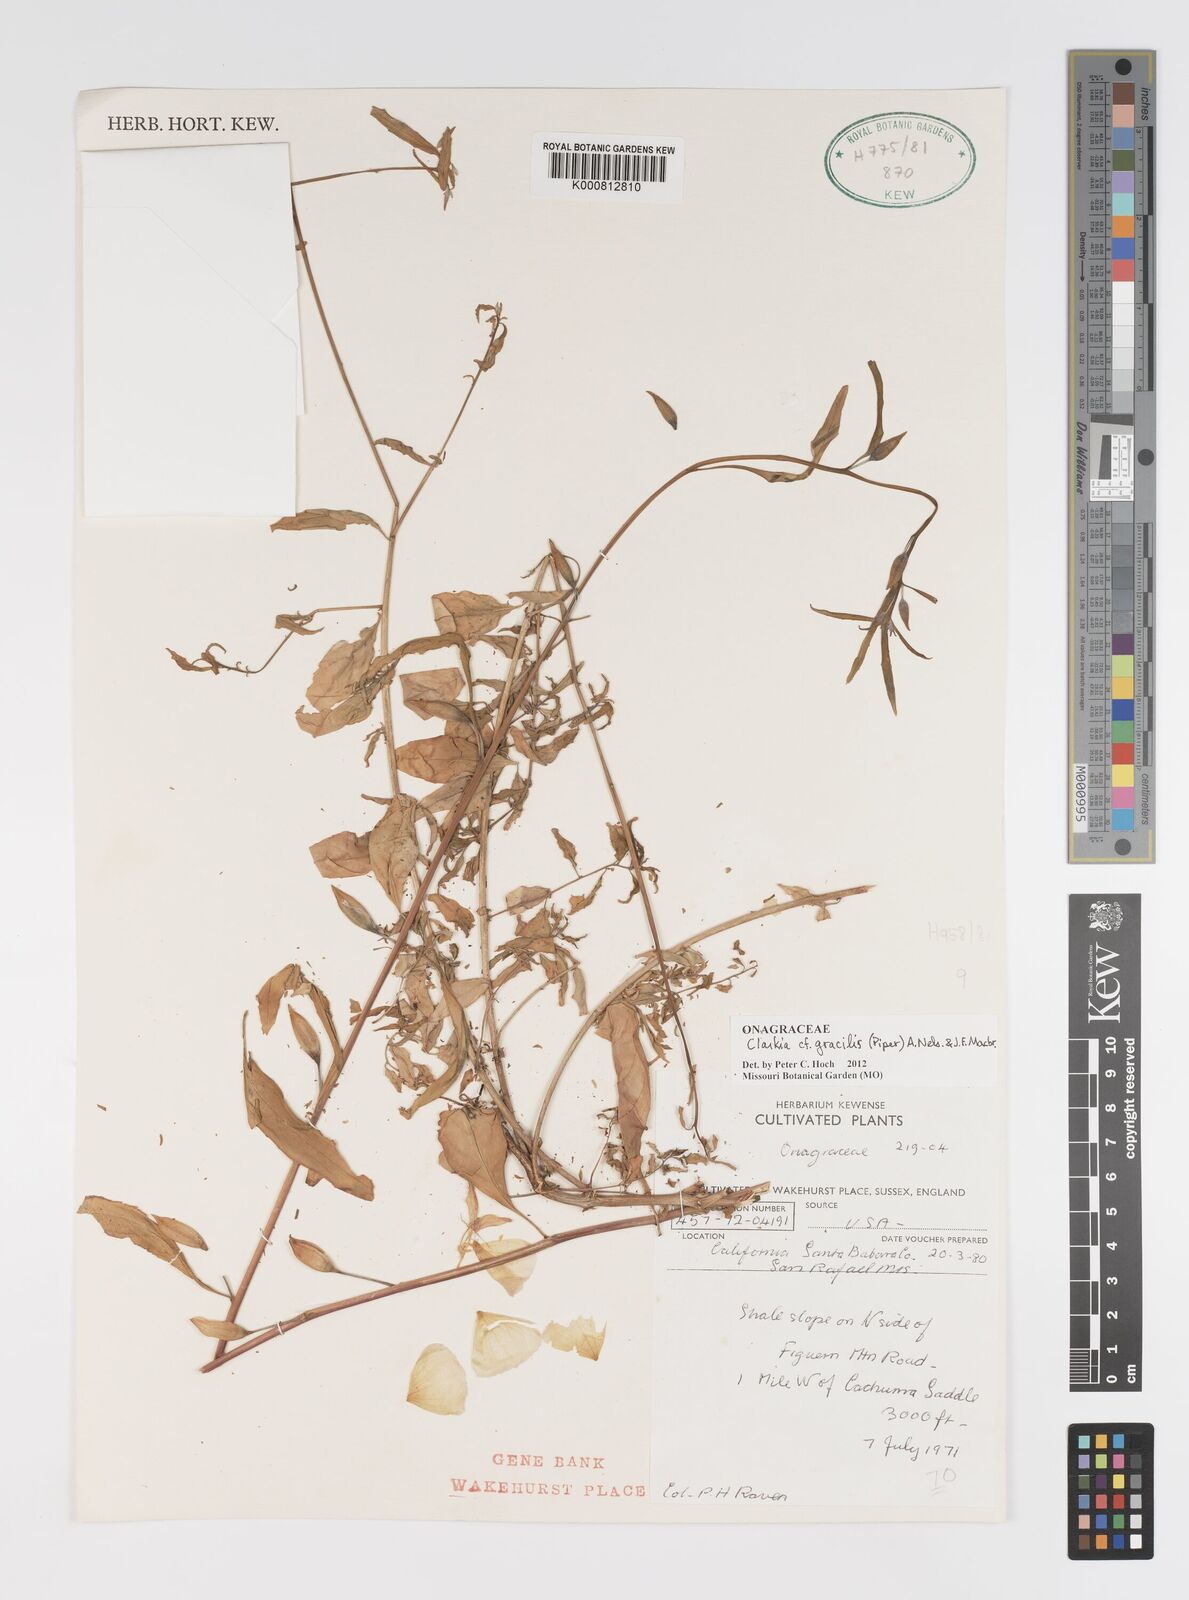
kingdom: Plantae
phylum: Tracheophyta
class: Magnoliopsida
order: Myrtales
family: Onagraceae
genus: Clarkia
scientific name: Clarkia bottae
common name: Punch-bowl godetia
